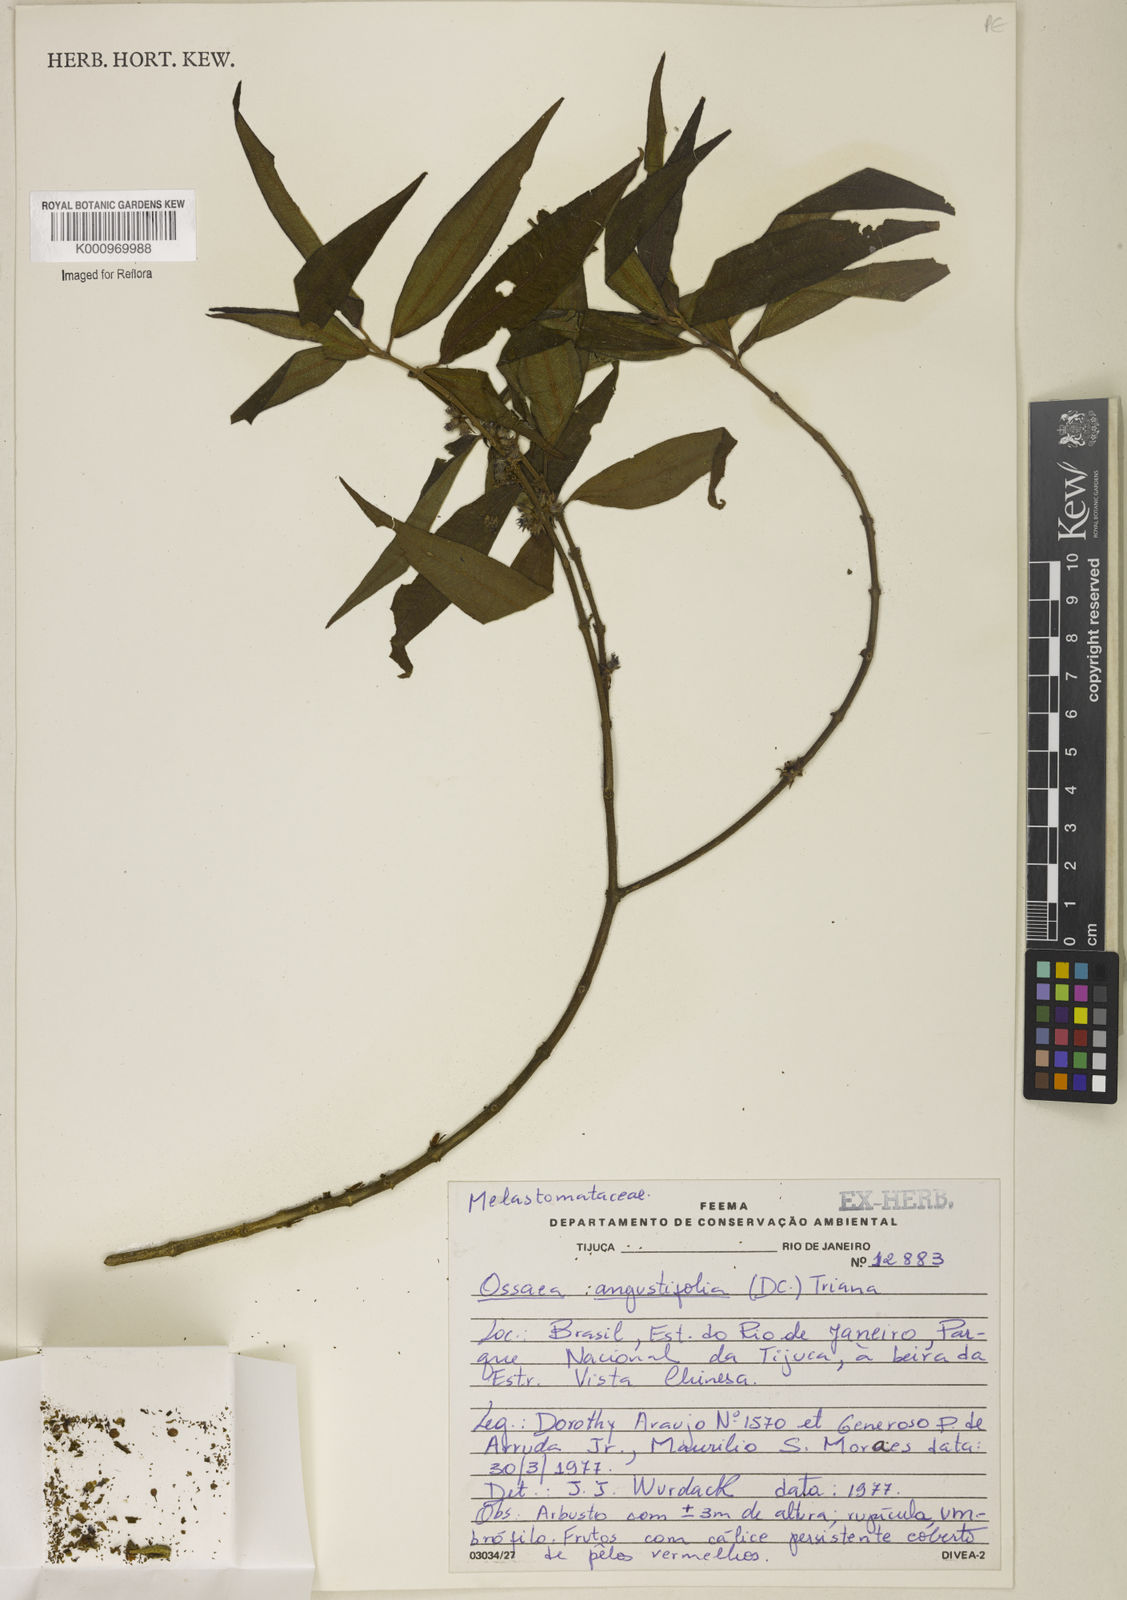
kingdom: Plantae
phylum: Tracheophyta
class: Magnoliopsida
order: Myrtales
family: Melastomataceae
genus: Miconia
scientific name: Miconia corcovadensis
